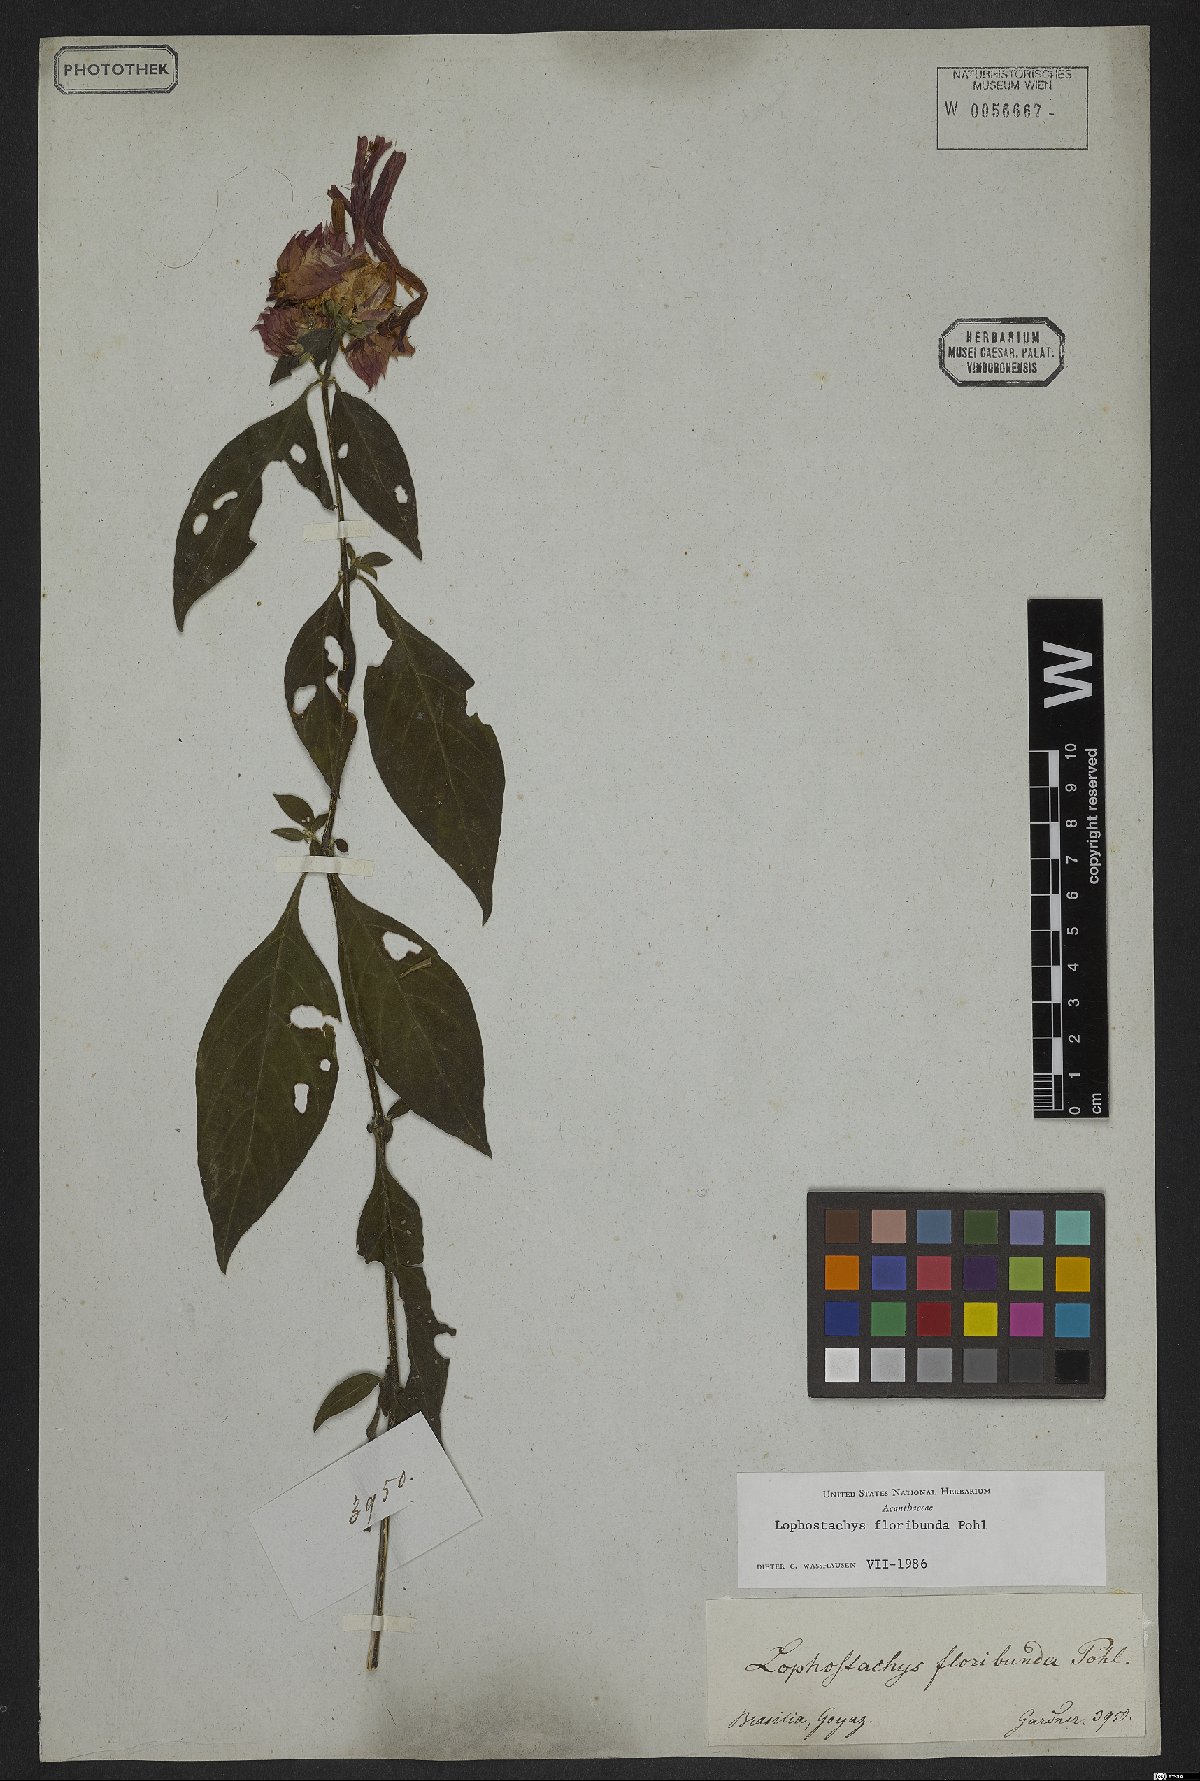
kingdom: Plantae
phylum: Tracheophyta
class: Magnoliopsida
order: Lamiales
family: Acanthaceae
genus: Lepidagathis
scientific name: Lepidagathis floribunda
